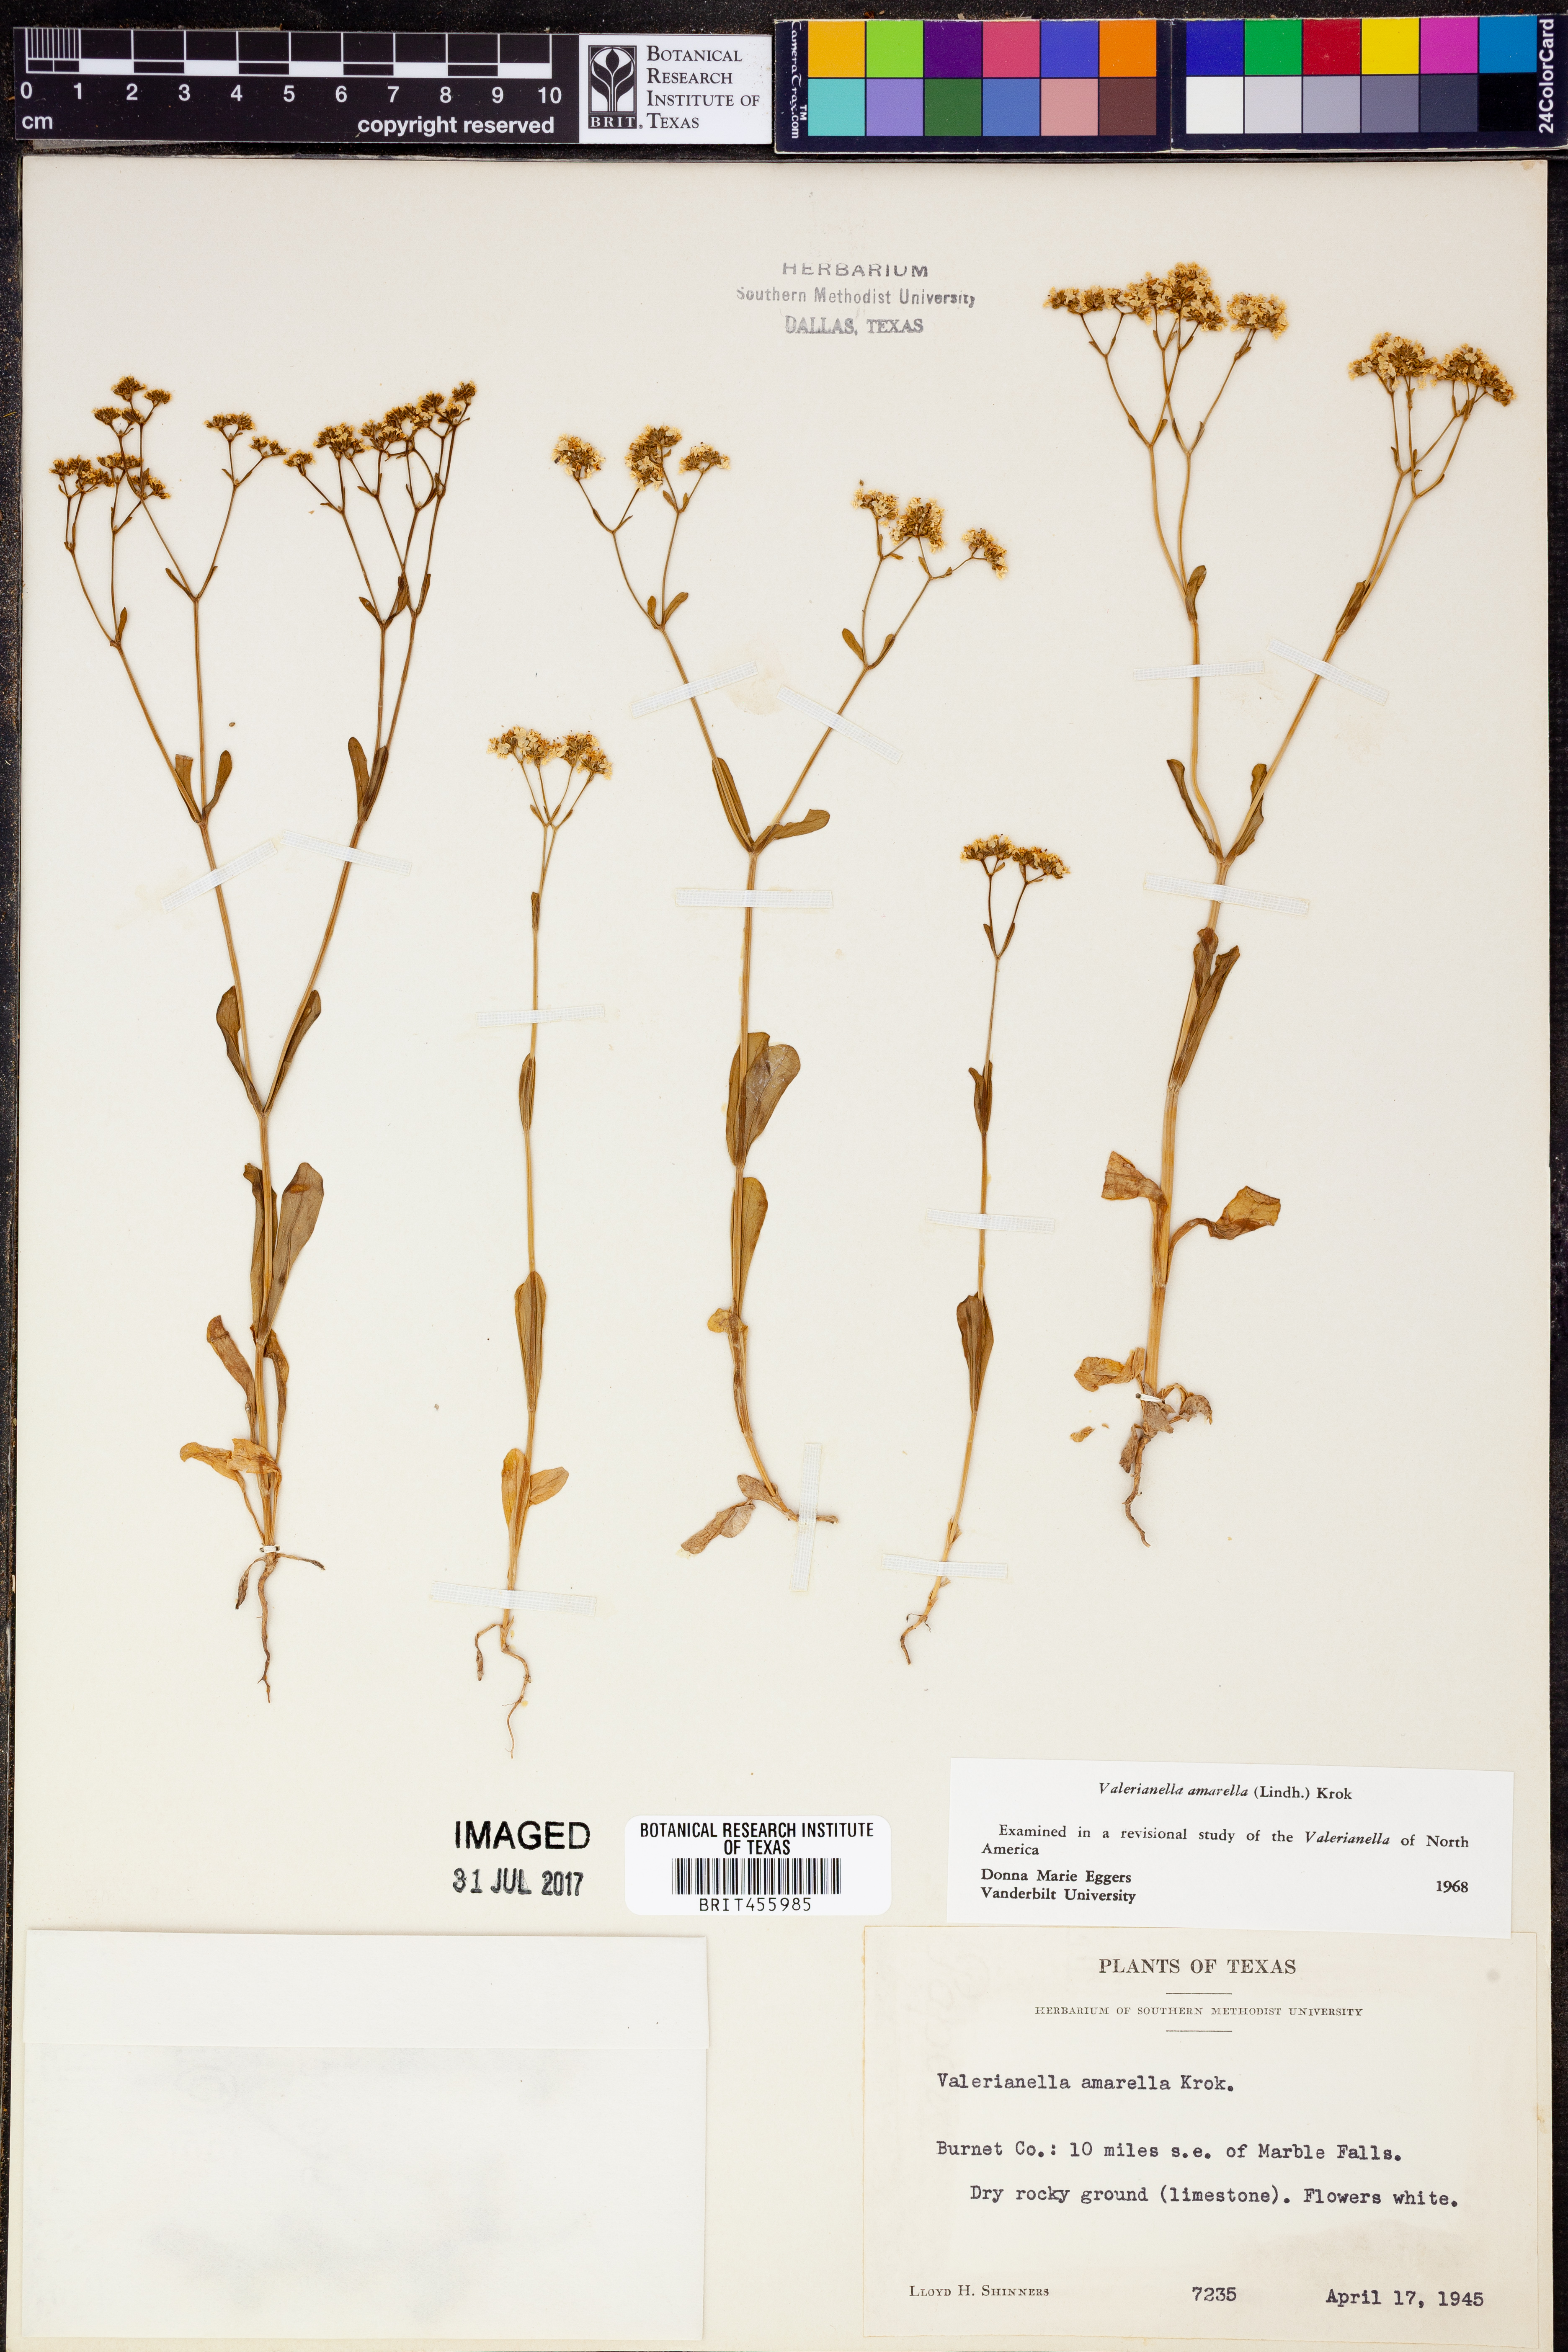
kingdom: Plantae
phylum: Tracheophyta
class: Magnoliopsida
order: Dipsacales
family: Caprifoliaceae
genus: Valerianella
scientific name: Valerianella amarella
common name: Hariy cornsalad
